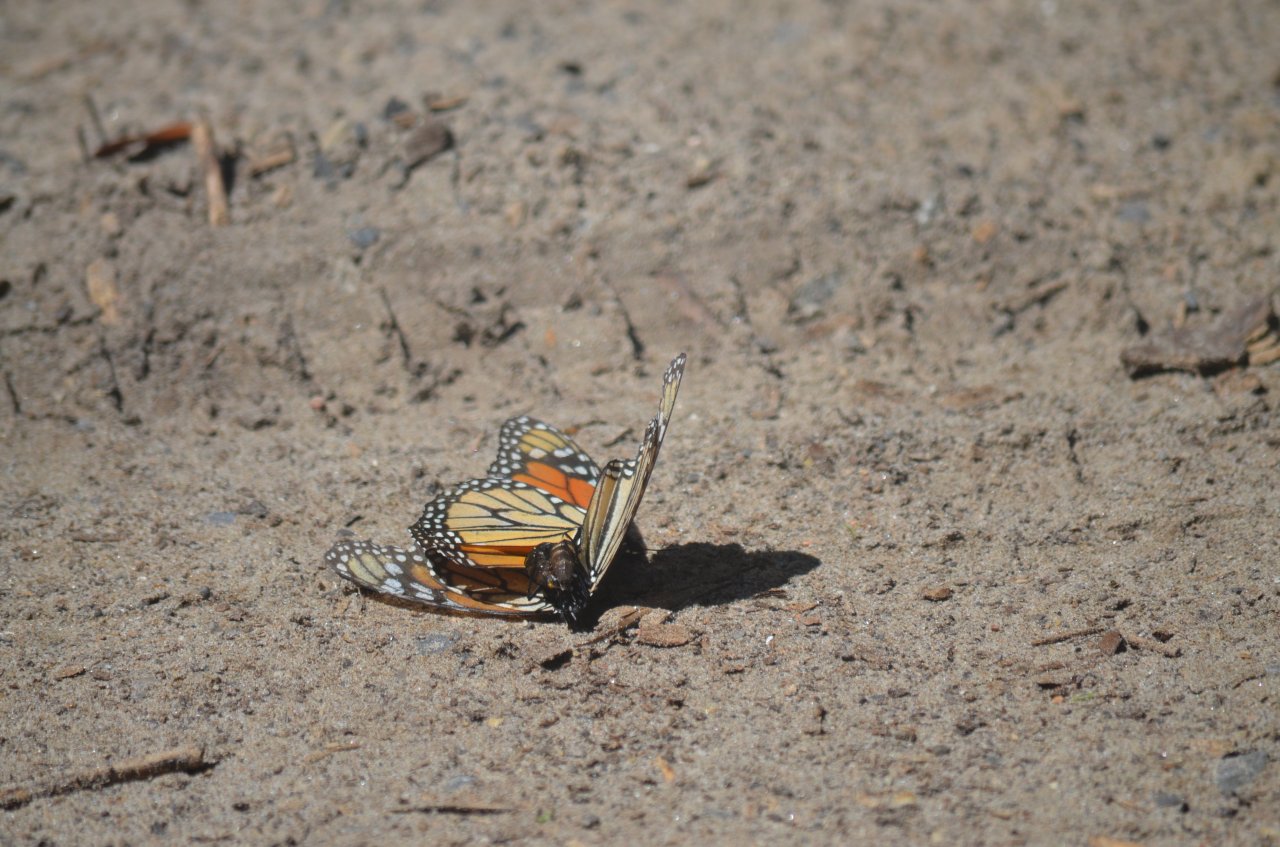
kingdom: Animalia
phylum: Arthropoda
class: Insecta
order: Lepidoptera
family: Nymphalidae
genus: Danaus
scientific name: Danaus plexippus
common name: Monarch
